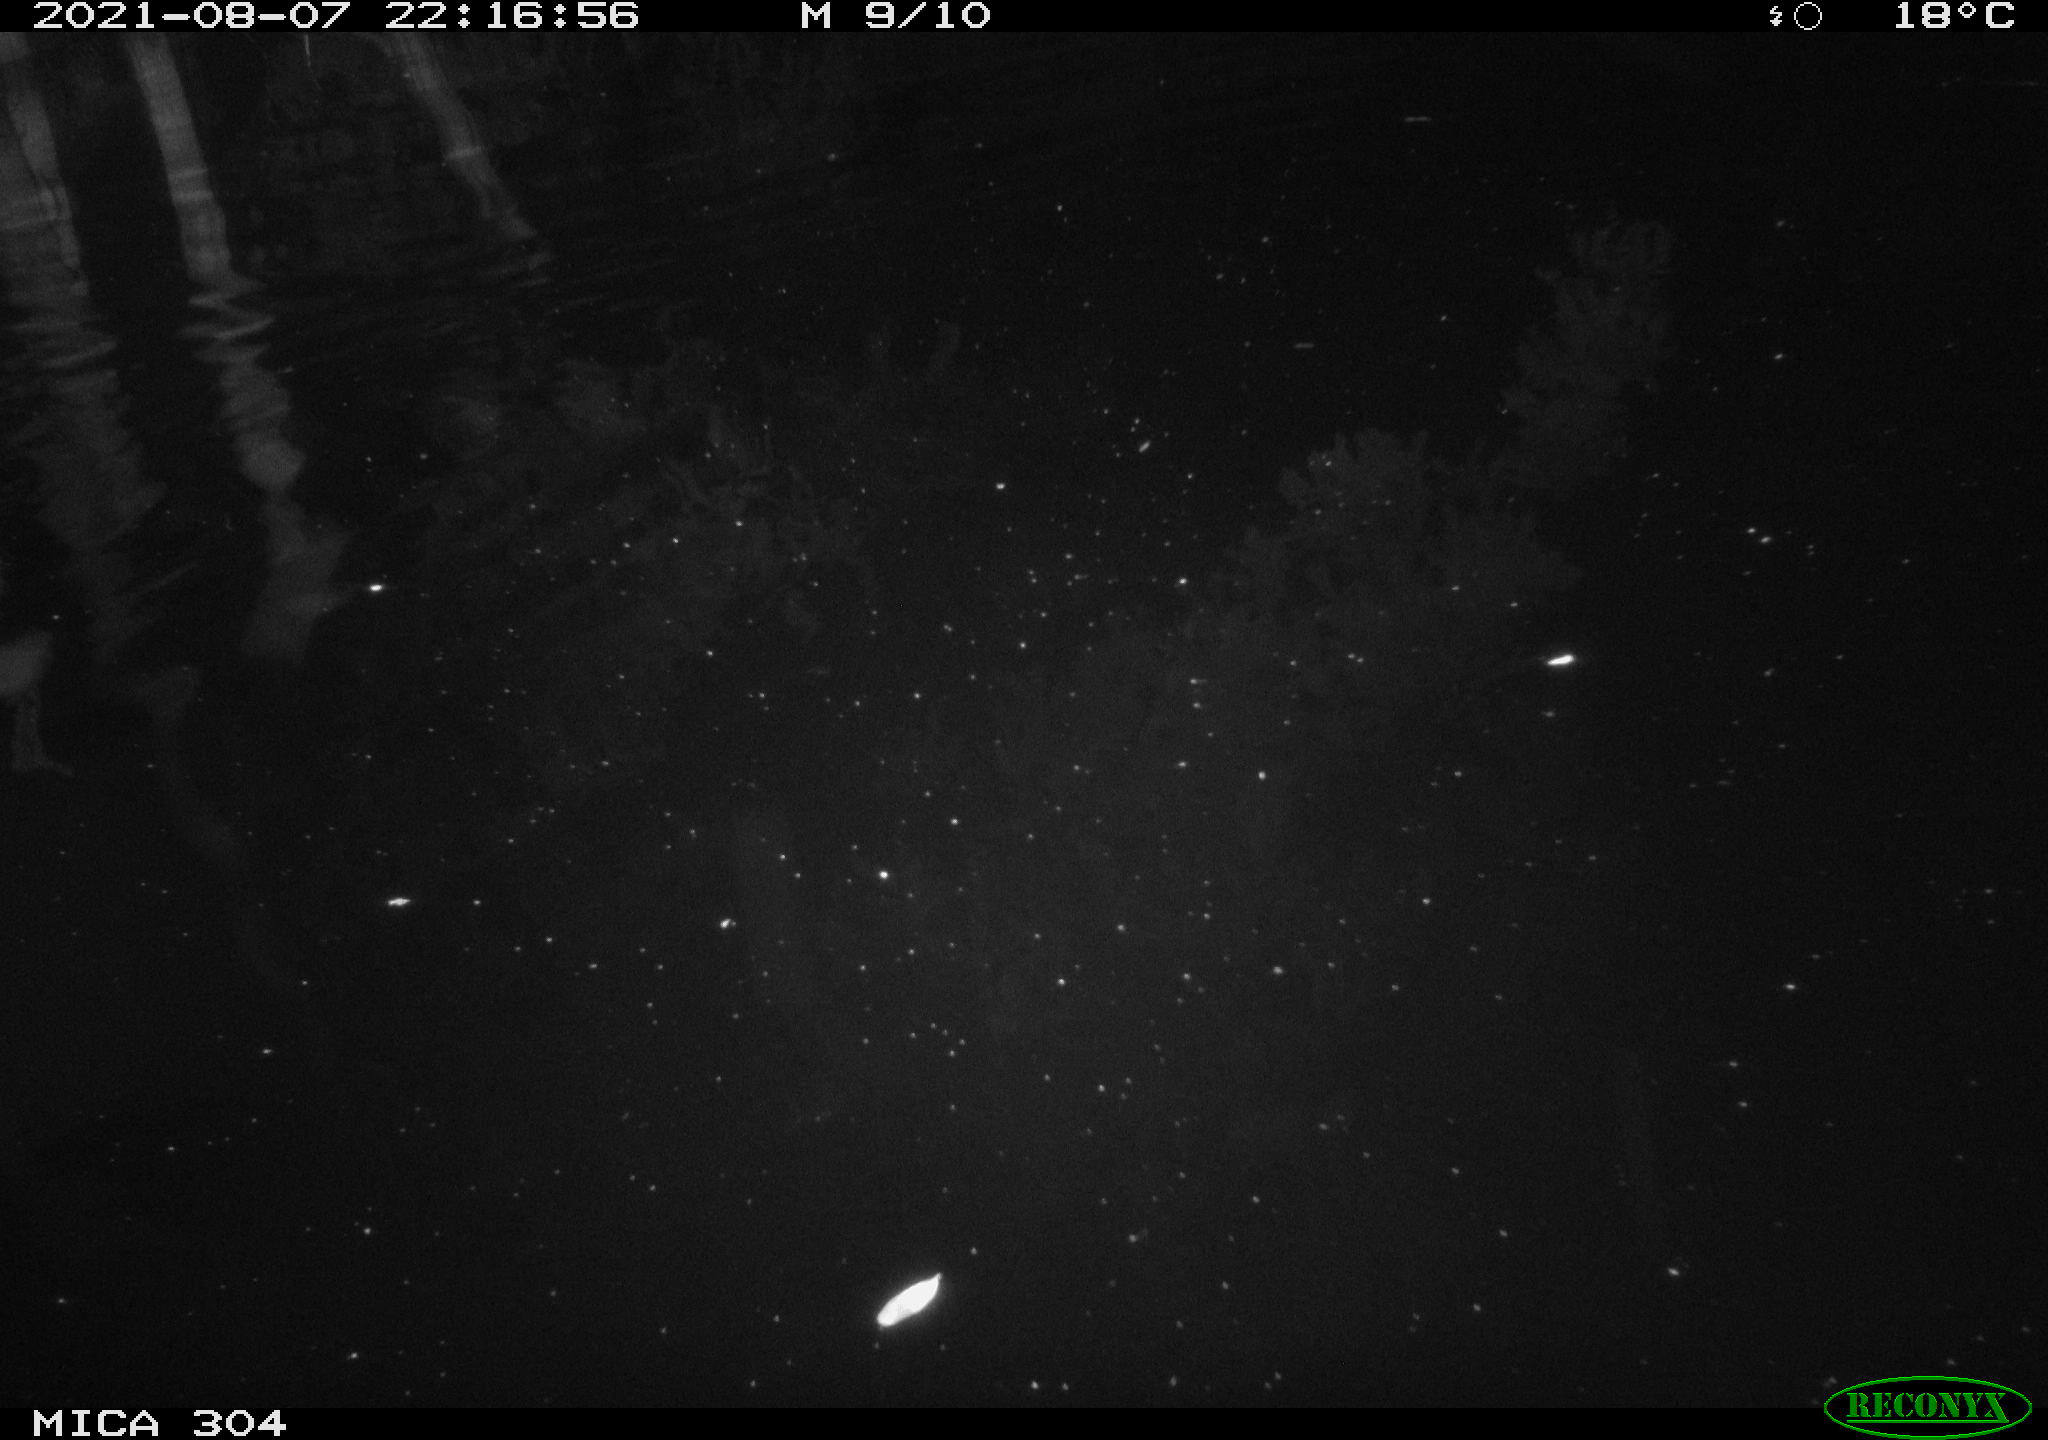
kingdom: Animalia
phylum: Chordata
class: Mammalia
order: Rodentia
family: Muridae
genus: Rattus
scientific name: Rattus norvegicus
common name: Brown rat
